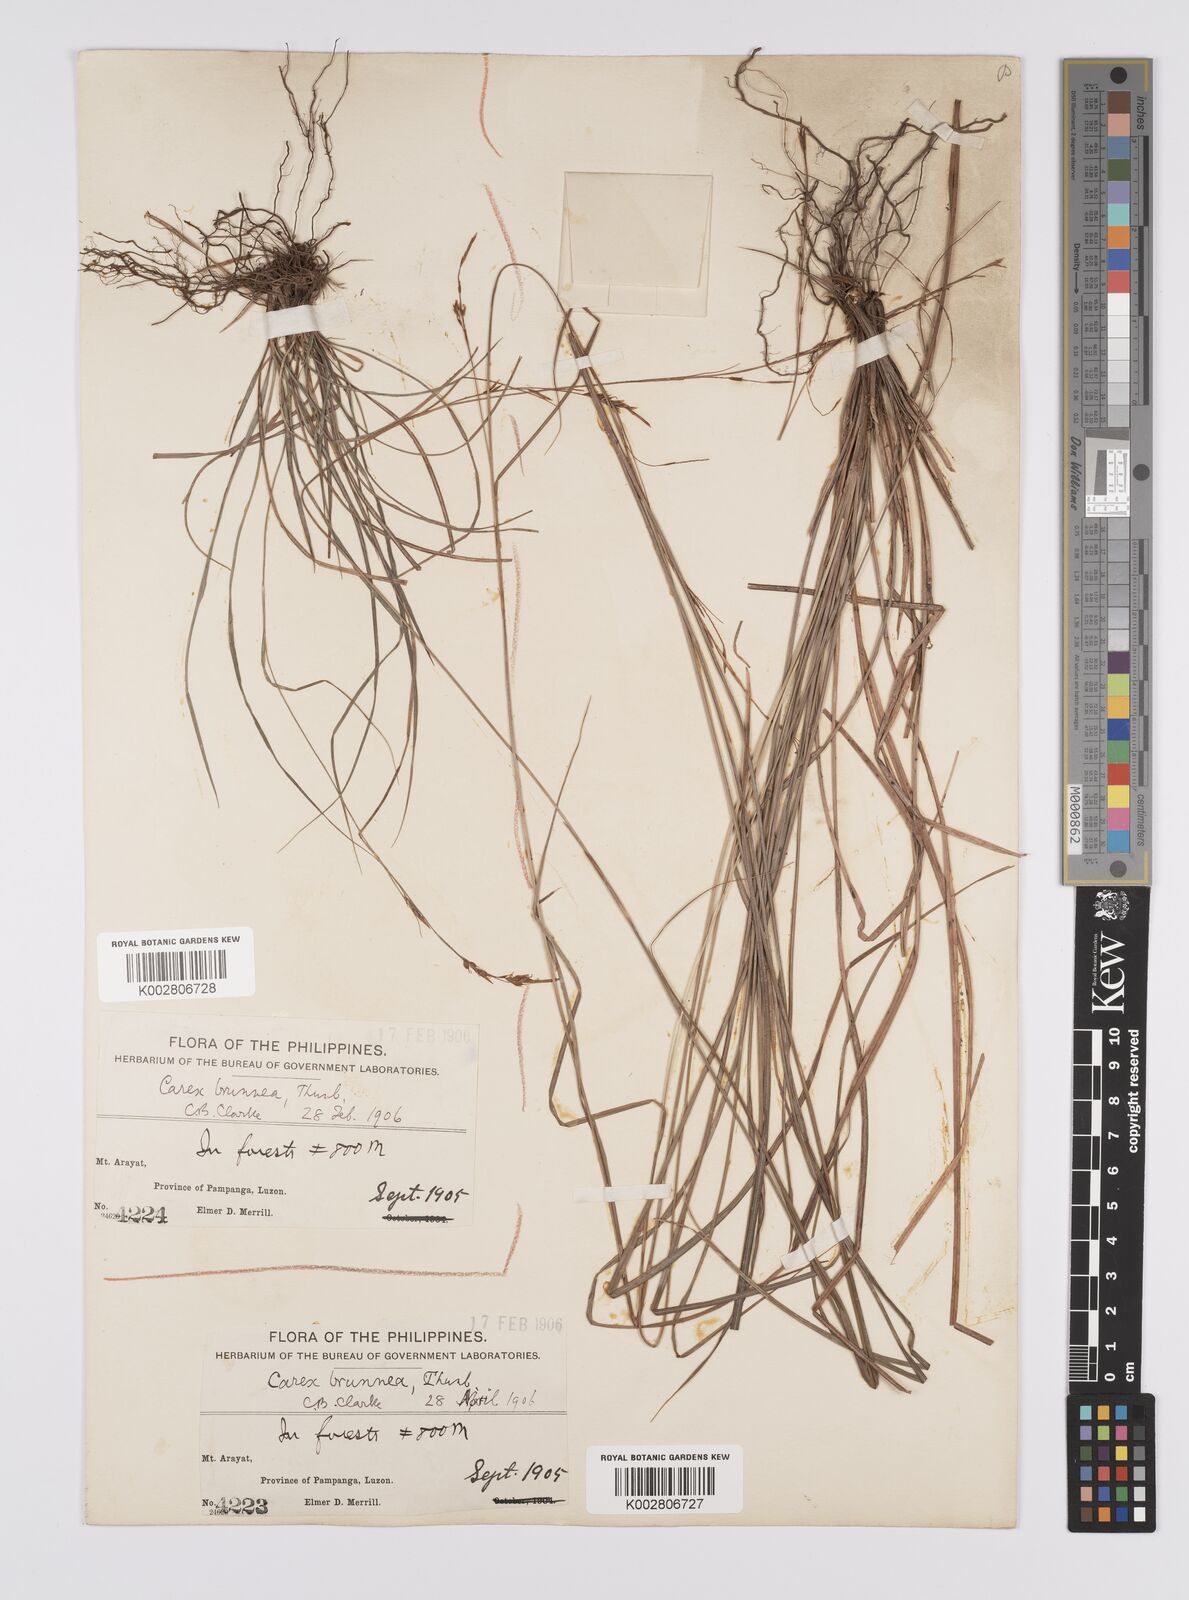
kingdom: Plantae
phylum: Tracheophyta
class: Liliopsida
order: Poales
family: Cyperaceae
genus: Carex
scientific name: Carex brunnea
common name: Greater brown sedge
